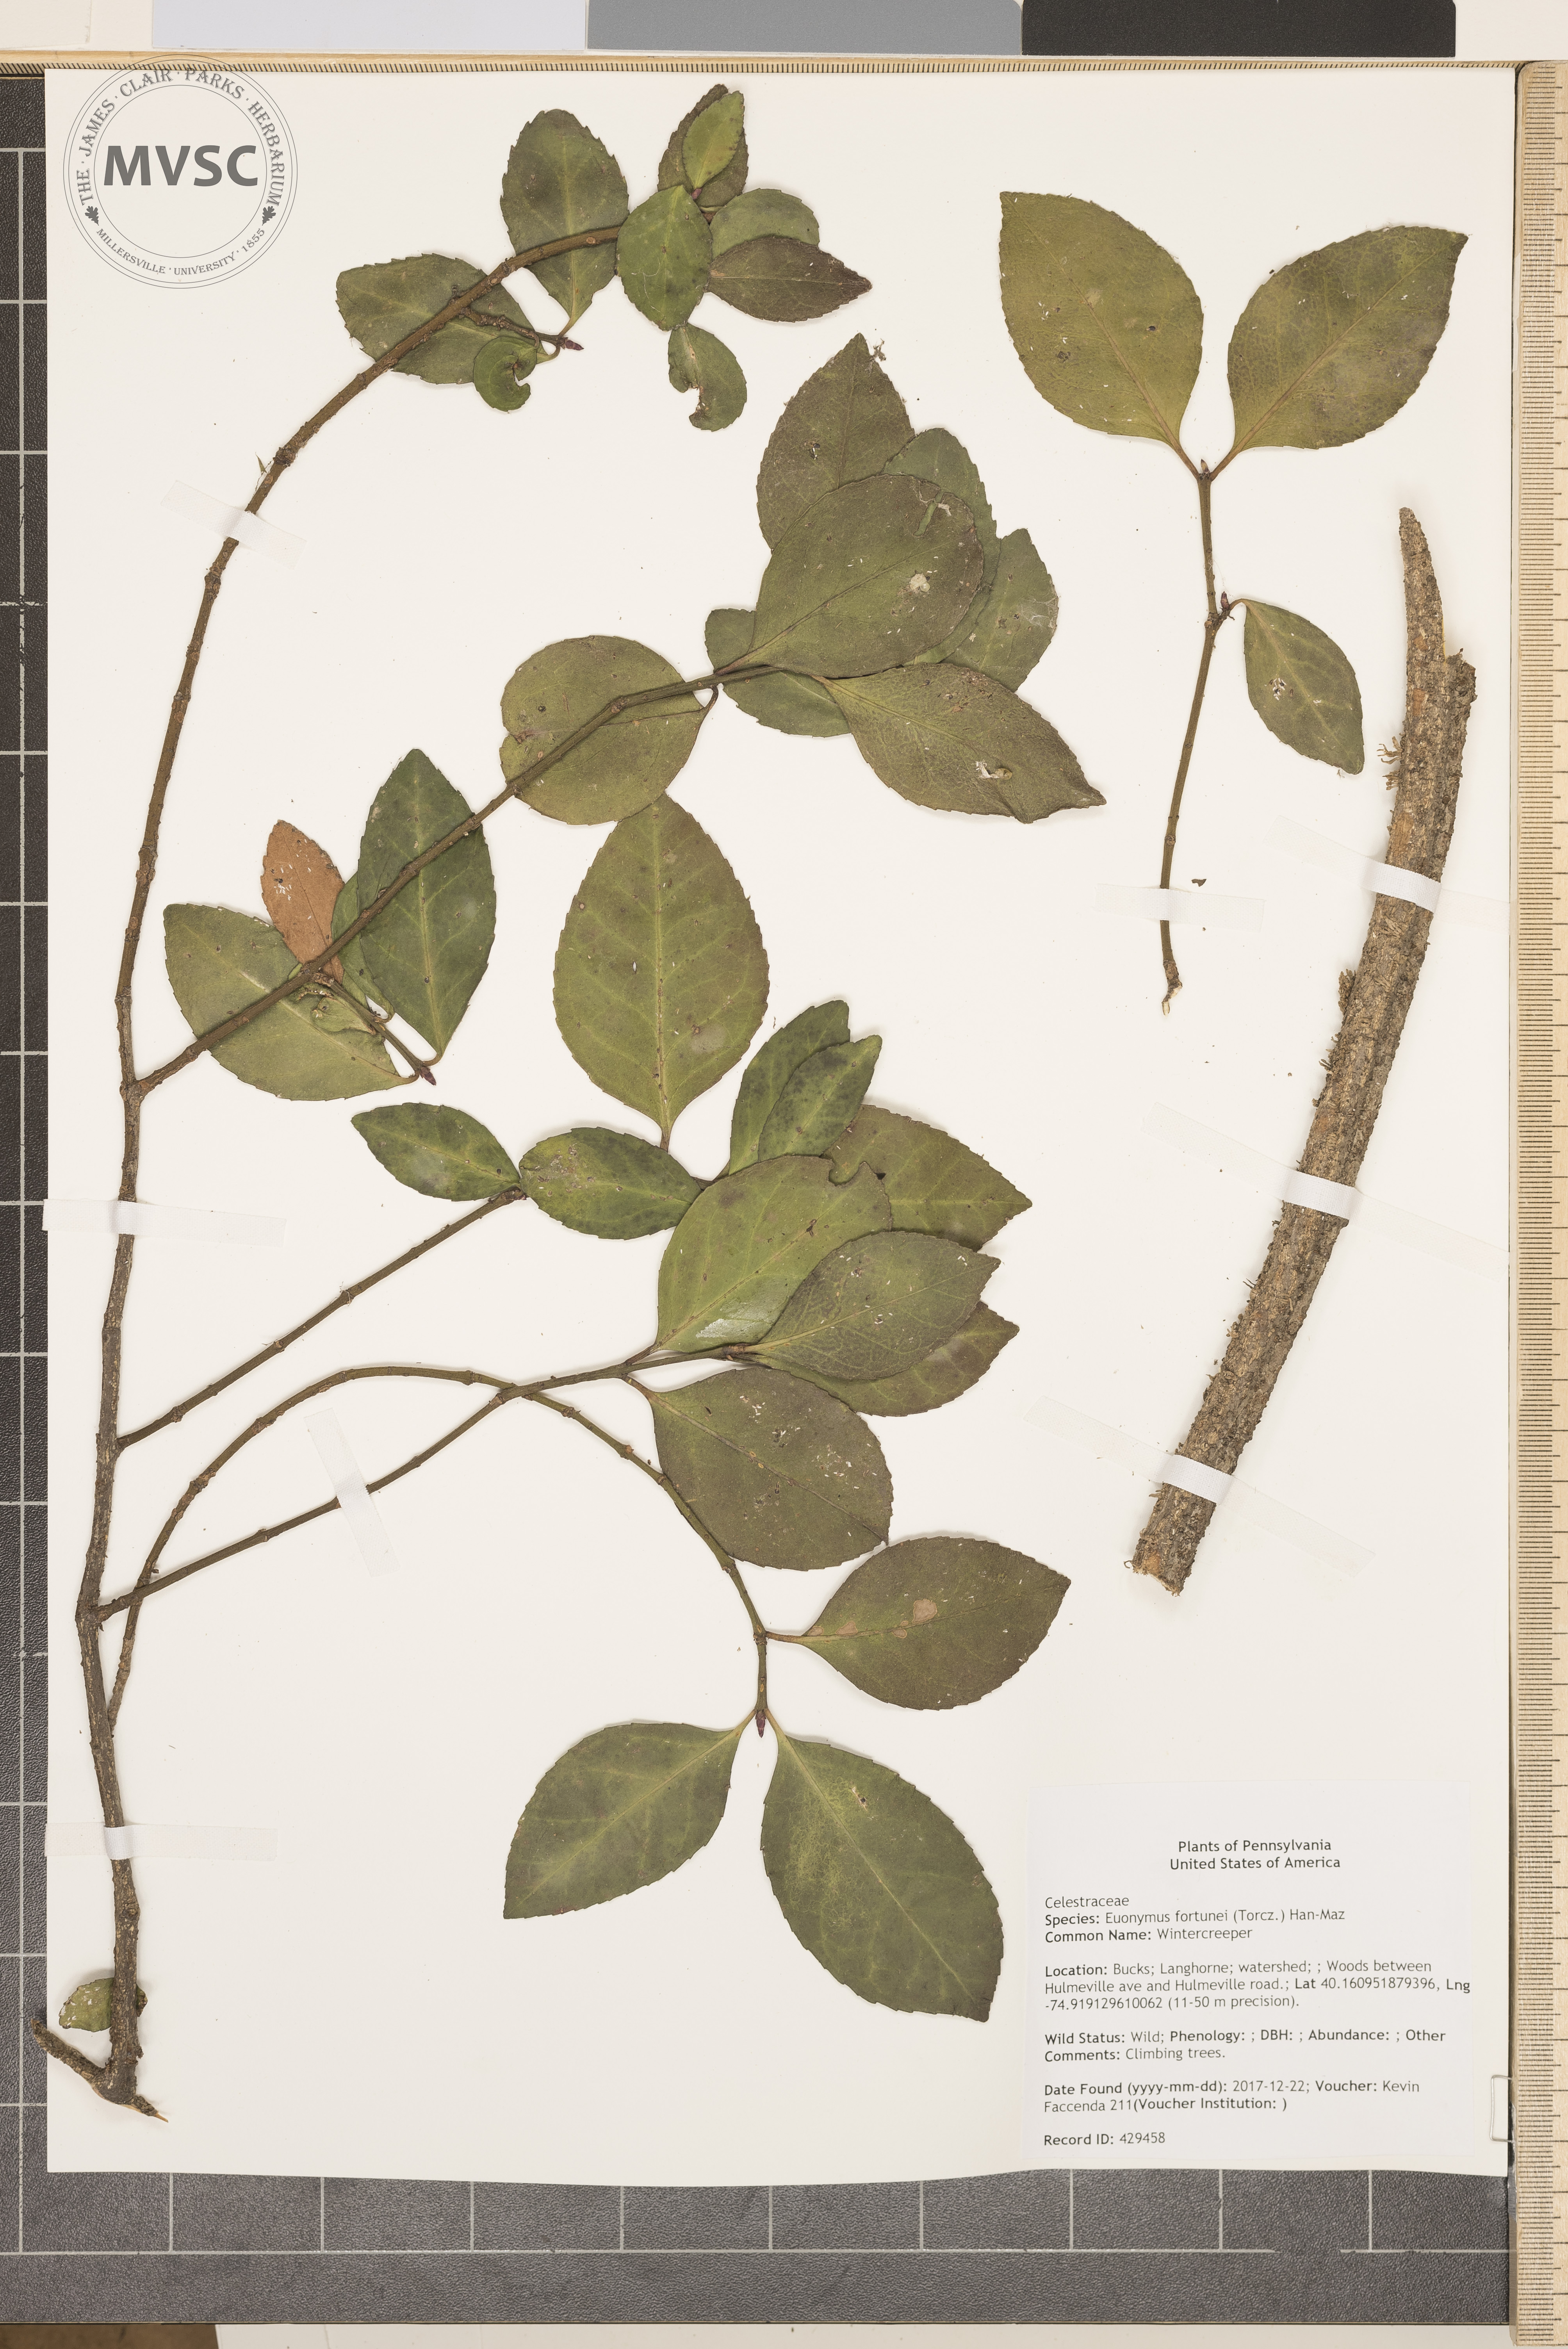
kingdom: Plantae
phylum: Tracheophyta
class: Magnoliopsida
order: Celastrales
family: Celastraceae
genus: Euonymus
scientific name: Euonymus fortunei
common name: Wintercreeper
